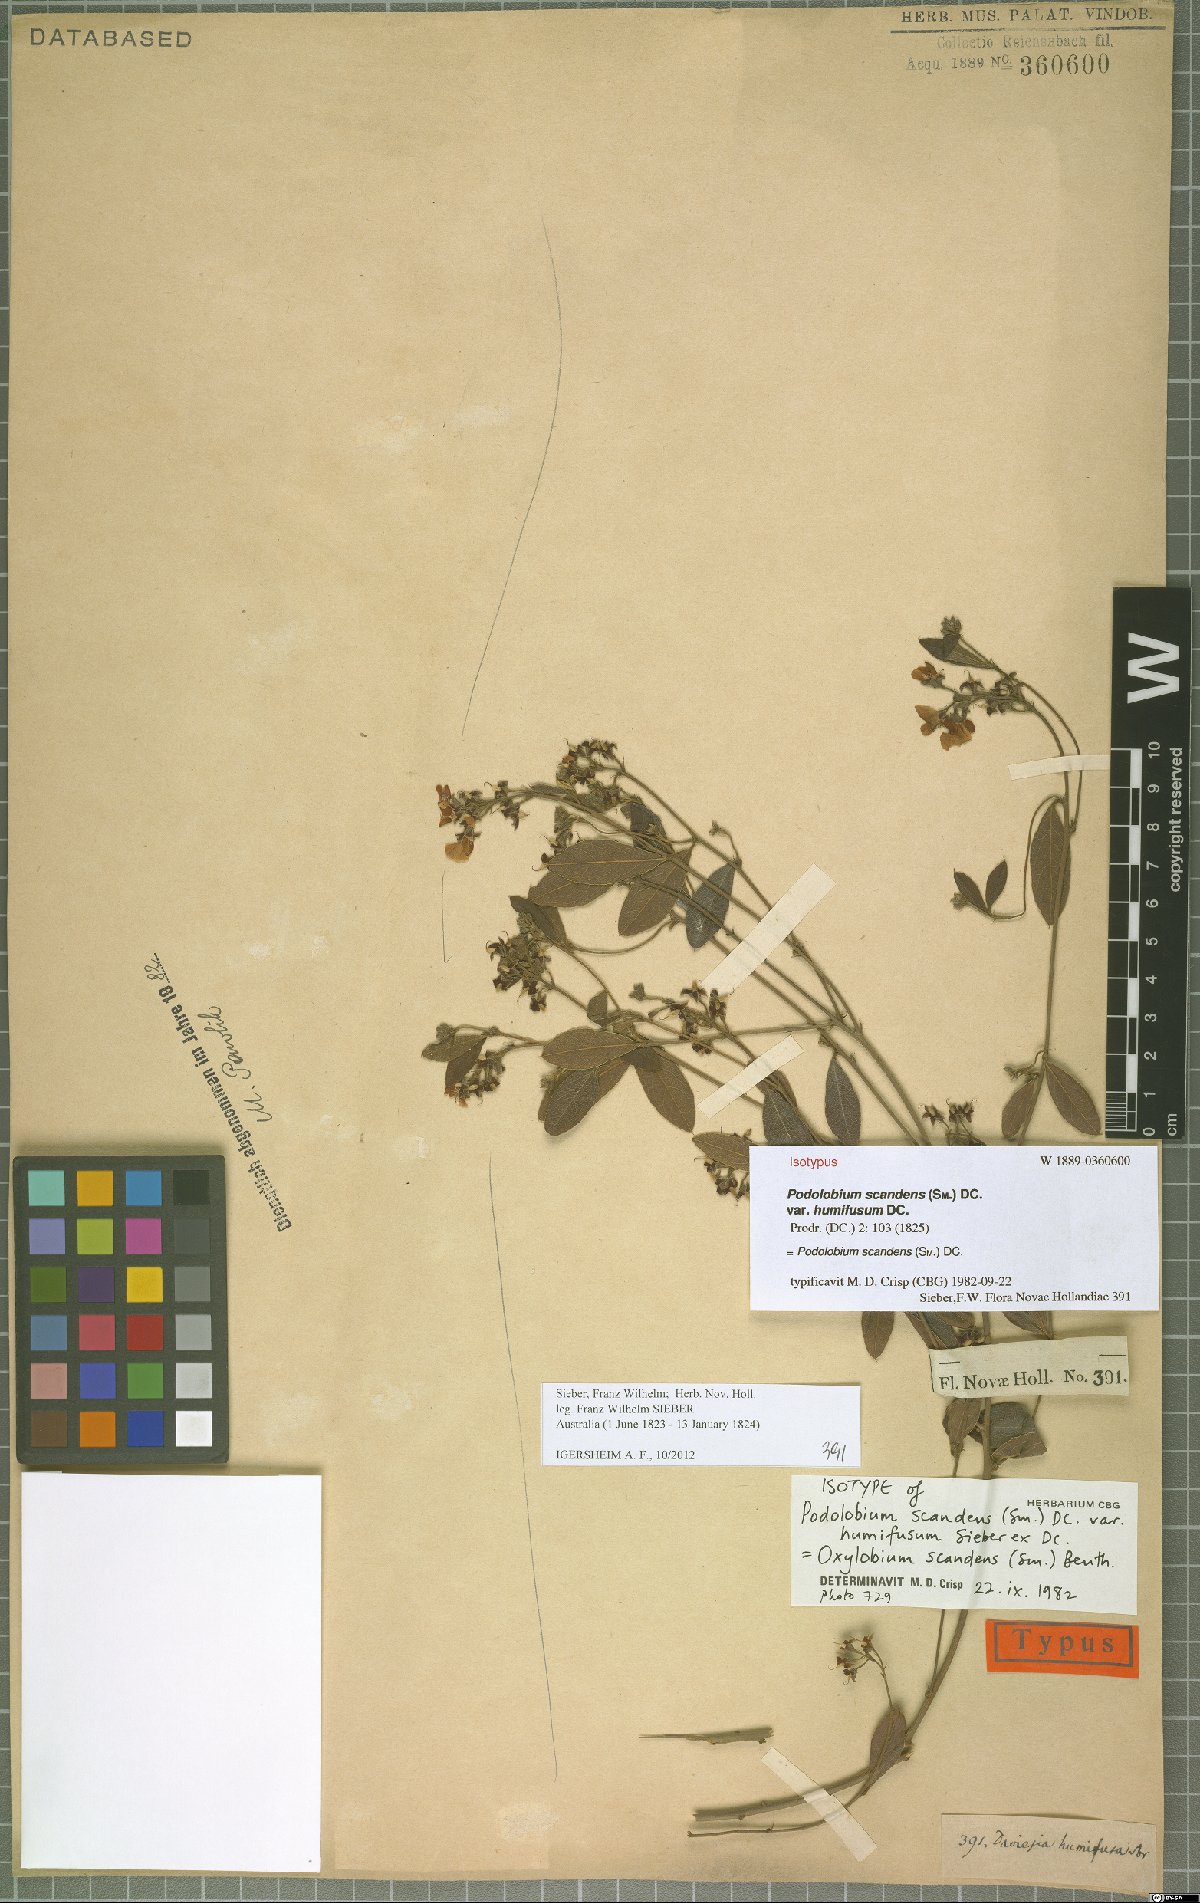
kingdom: Plantae
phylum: Tracheophyta
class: Magnoliopsida
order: Fabales
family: Fabaceae
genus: Podolobium
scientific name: Podolobium scandens
